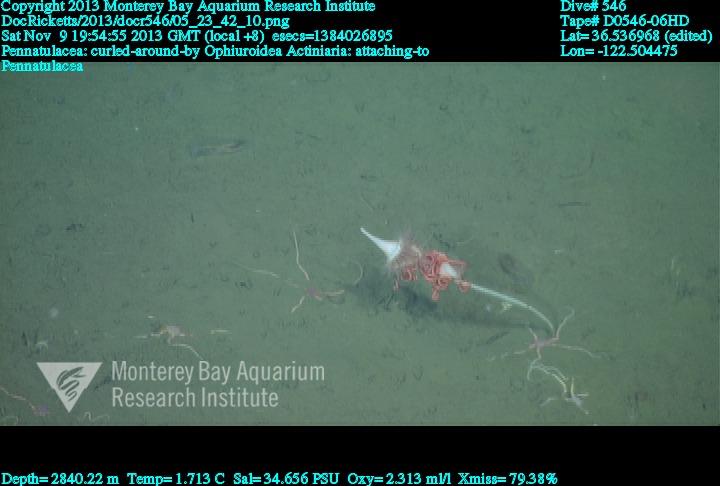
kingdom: Animalia
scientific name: Animalia
